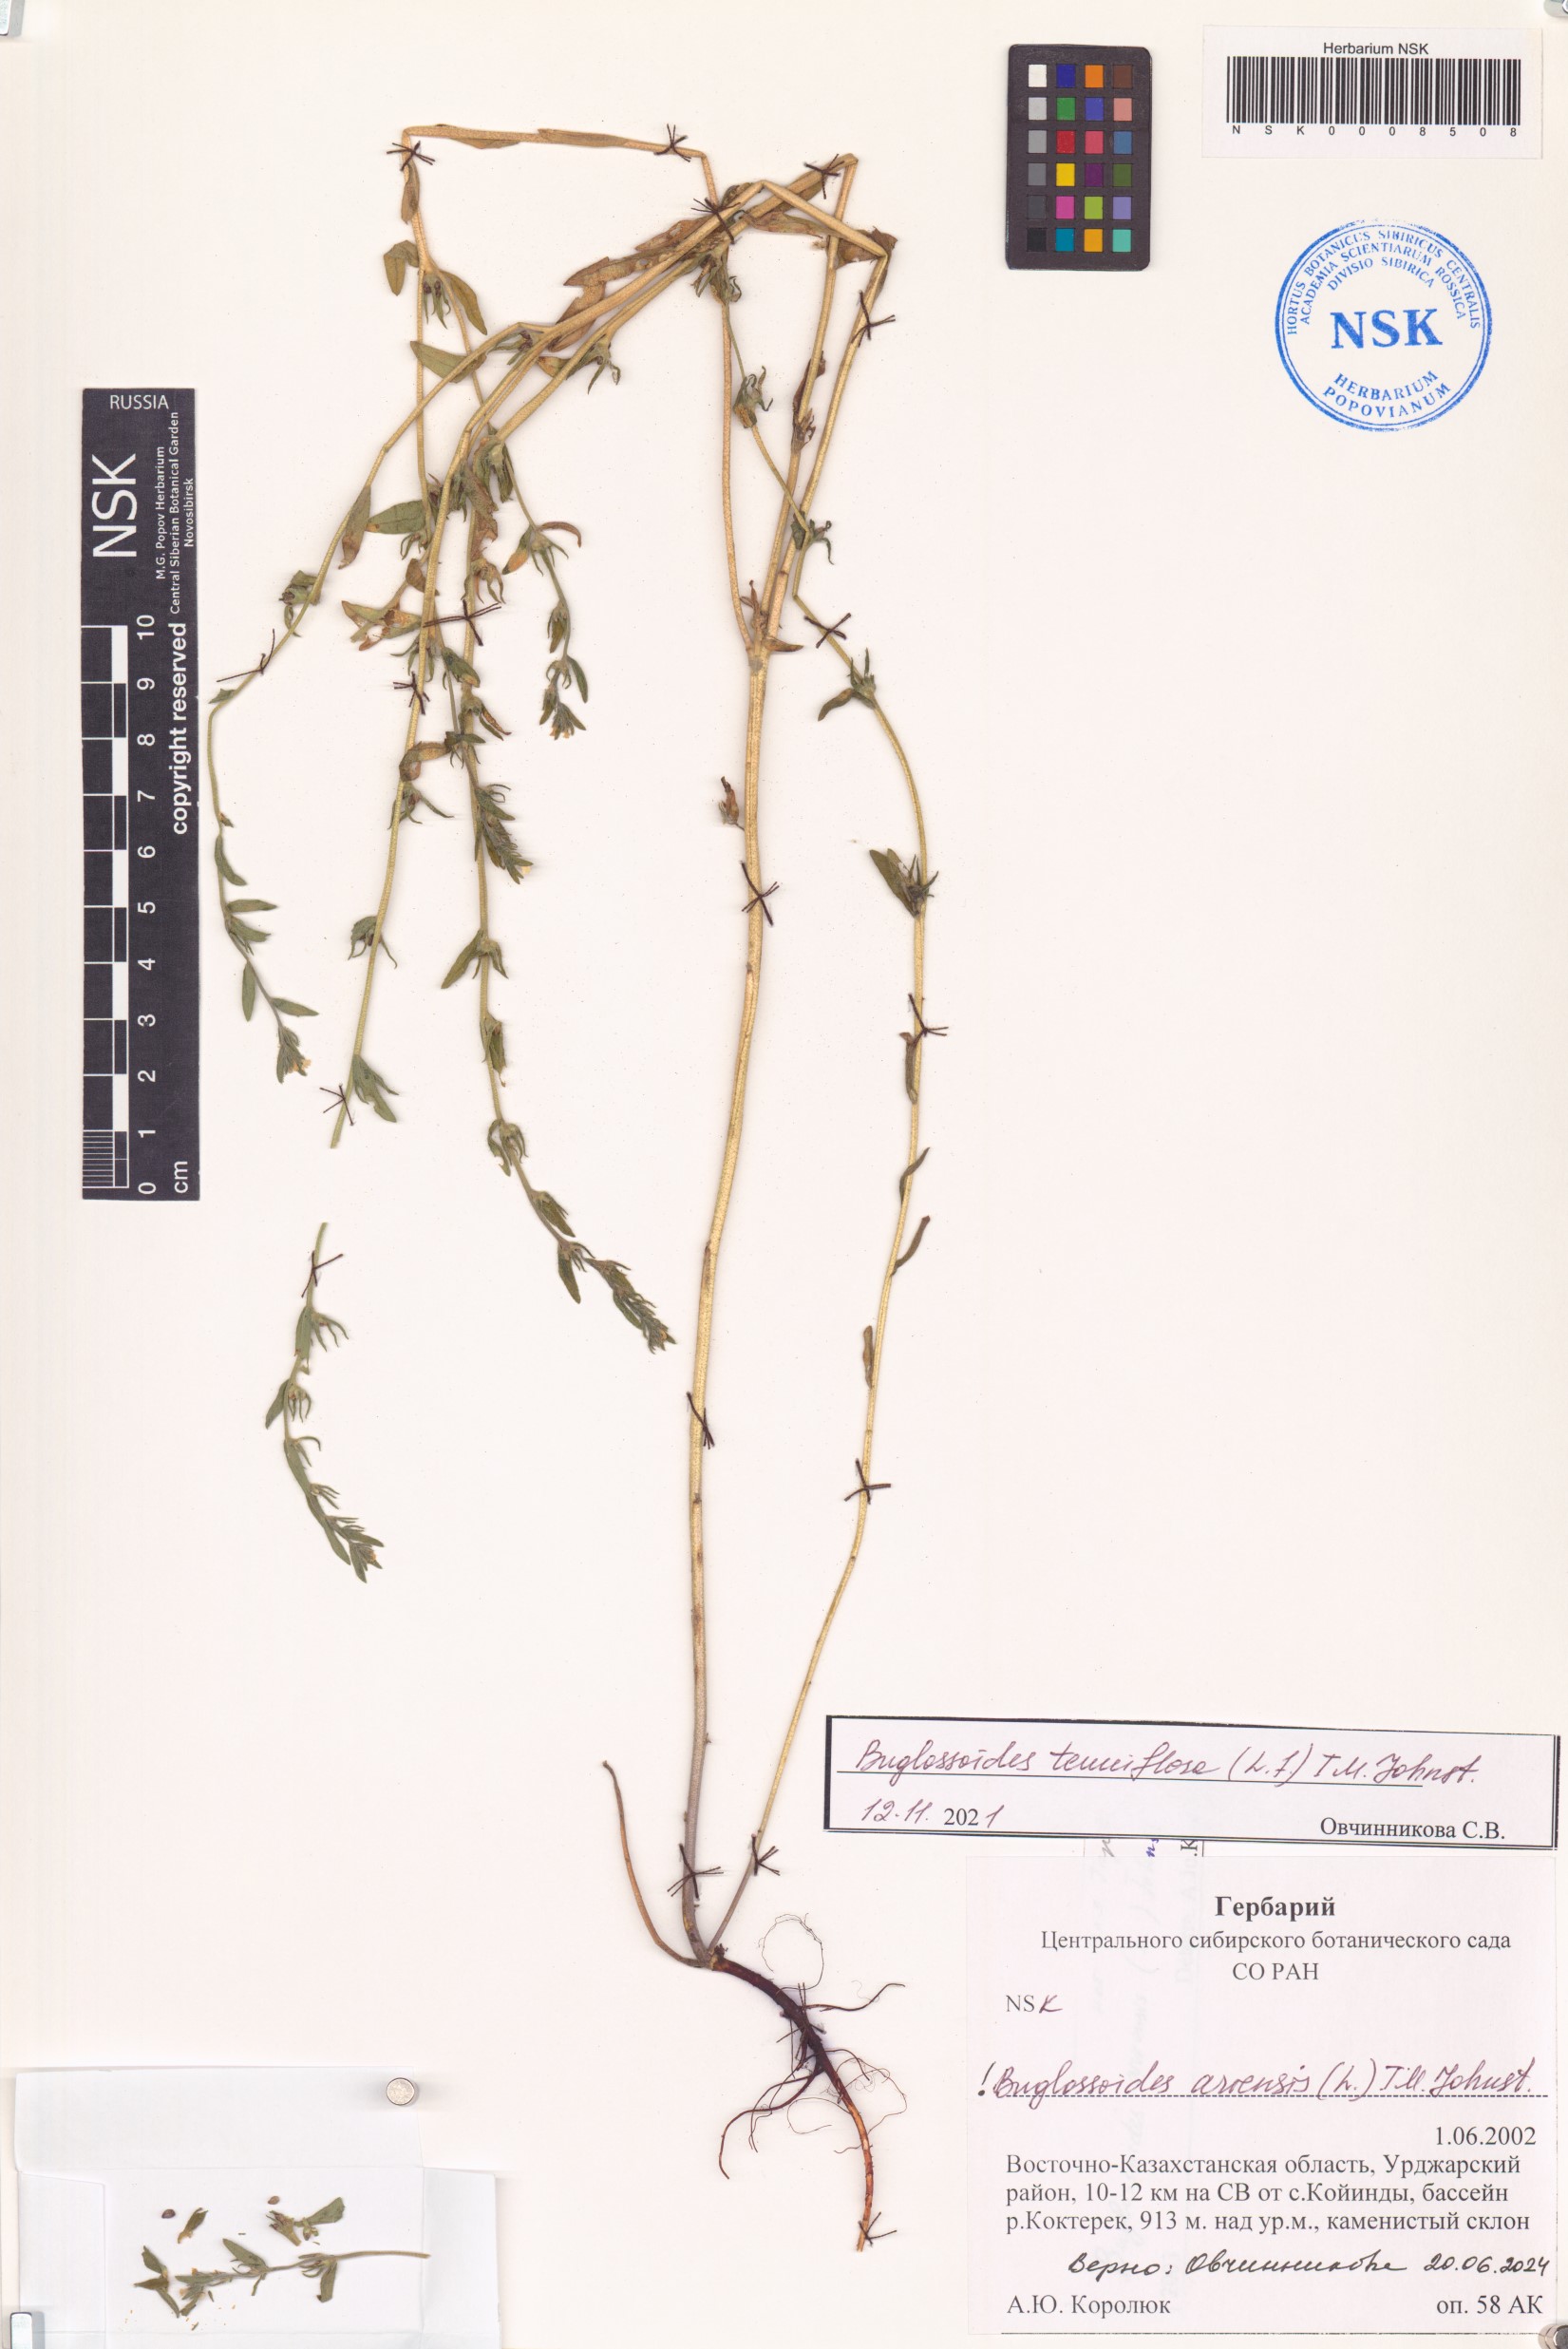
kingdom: Plantae
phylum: Tracheophyta
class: Magnoliopsida
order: Boraginales
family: Boraginaceae
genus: Buglossoides
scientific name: Buglossoides arvensis
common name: Corn gromwell
